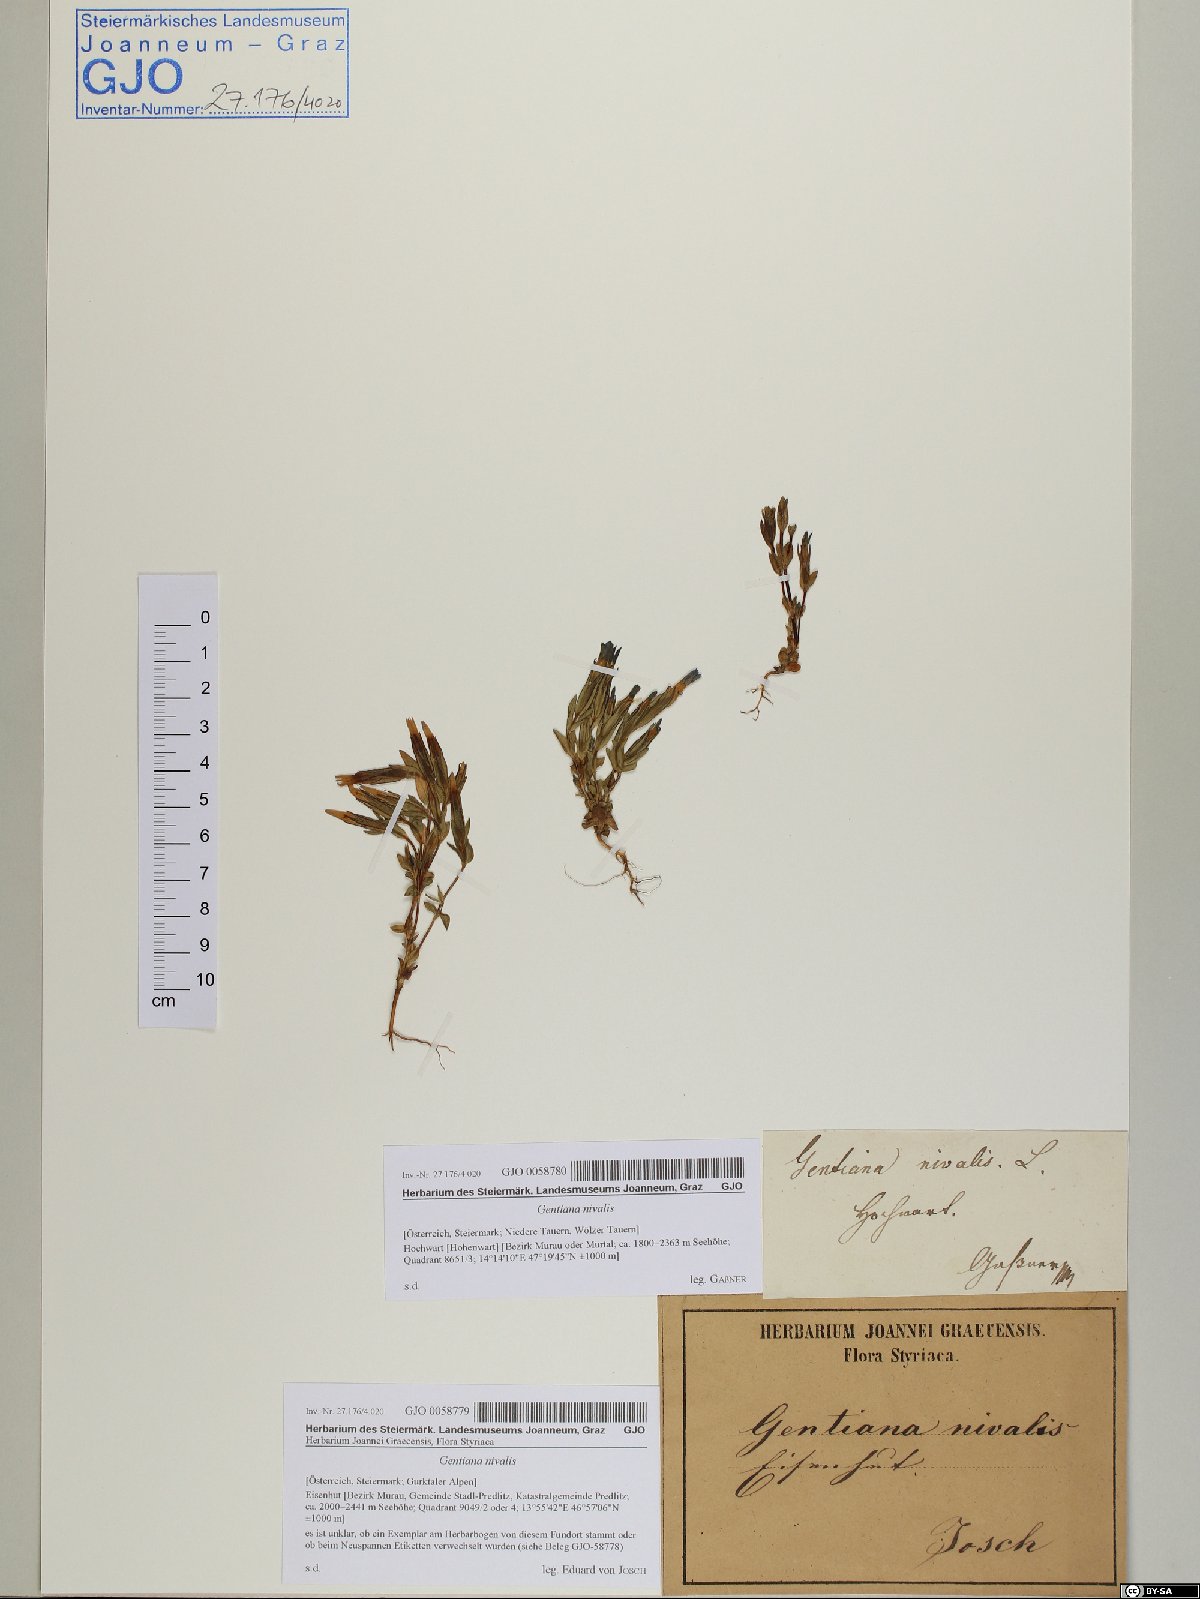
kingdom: Plantae
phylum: Tracheophyta
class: Magnoliopsida
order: Gentianales
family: Gentianaceae
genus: Gentiana
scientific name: Gentiana nivalis
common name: Alpine gentian
